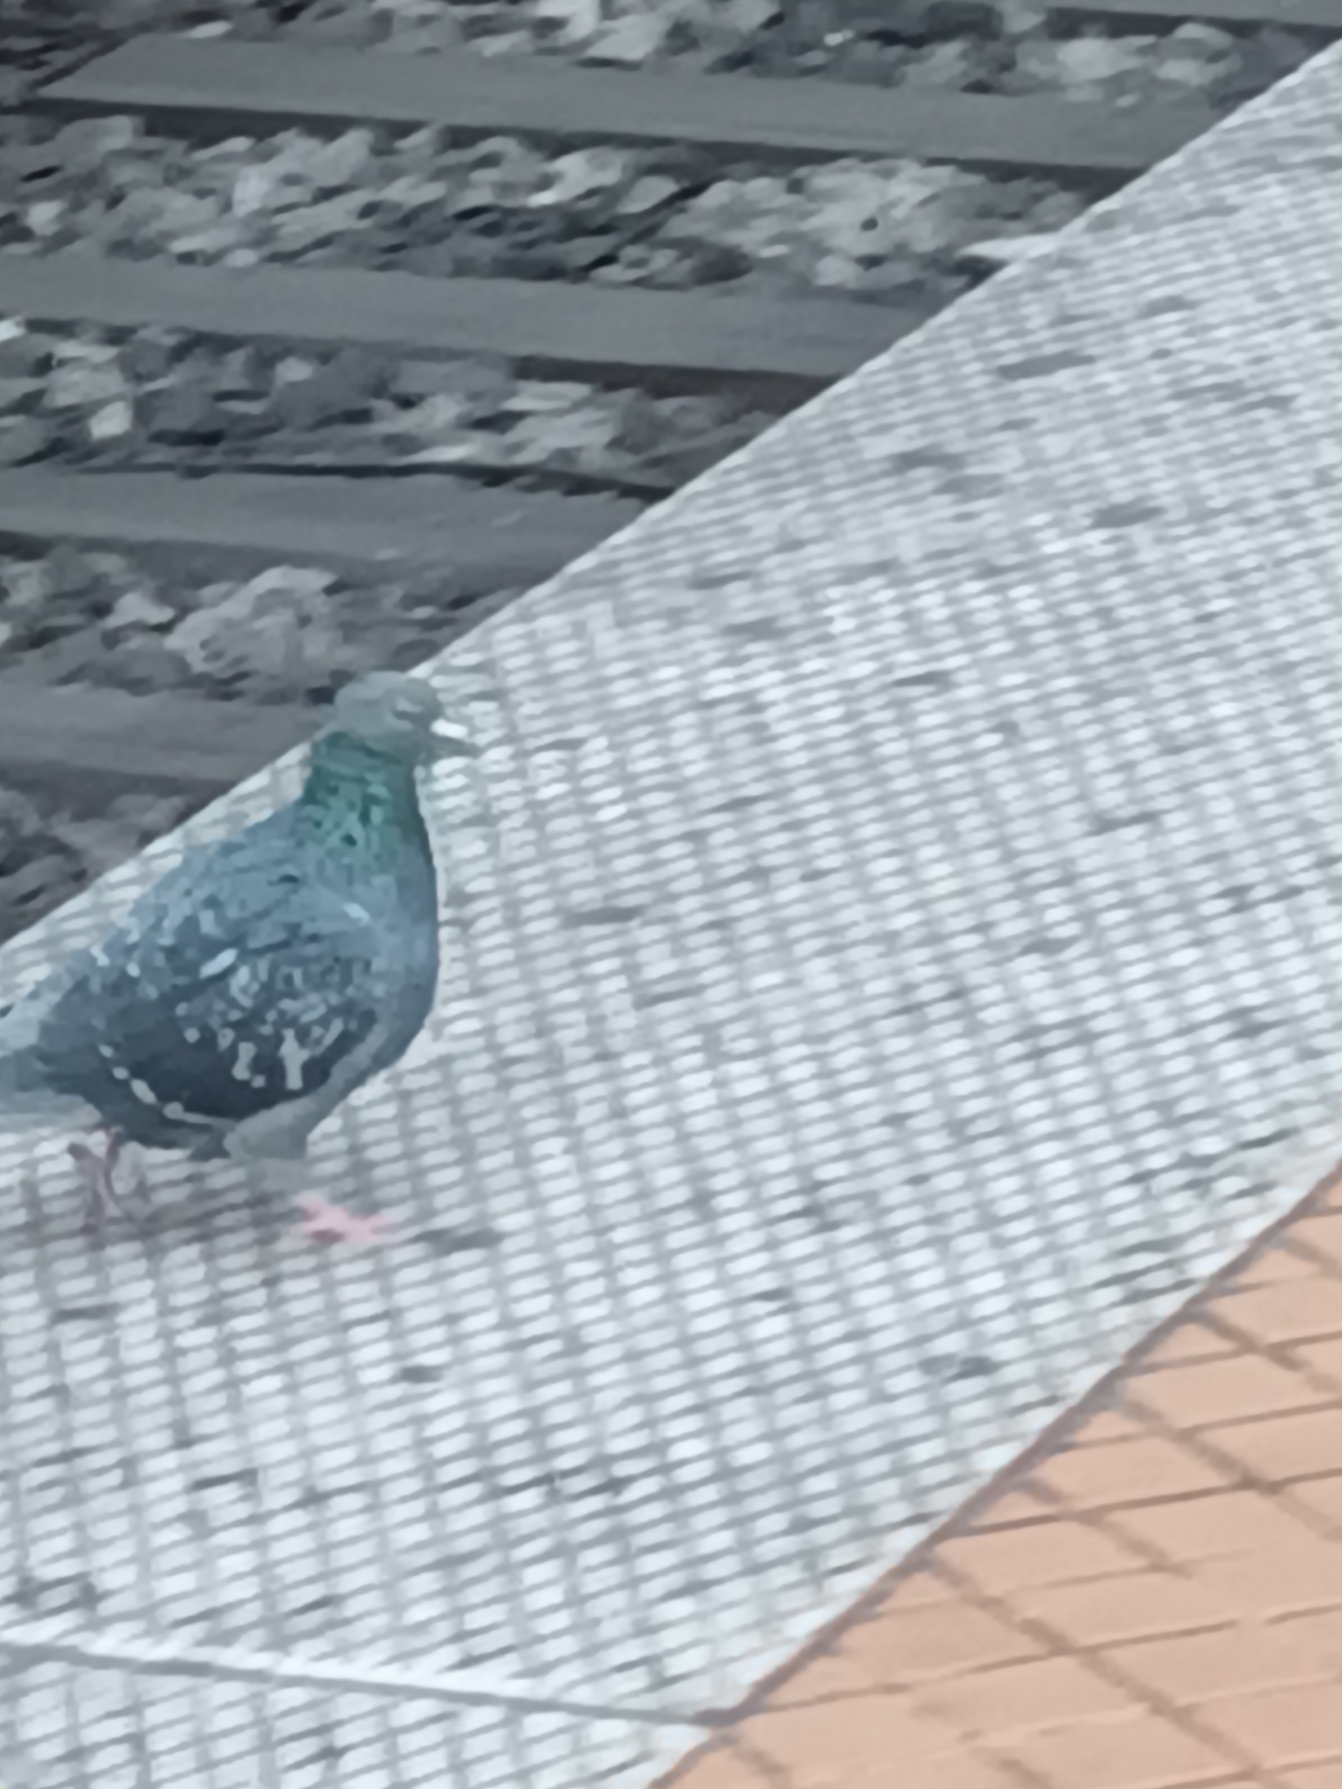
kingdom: Animalia
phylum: Chordata
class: Aves
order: Columbiformes
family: Columbidae
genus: Columba
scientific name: Columba livia
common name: Tamdue
